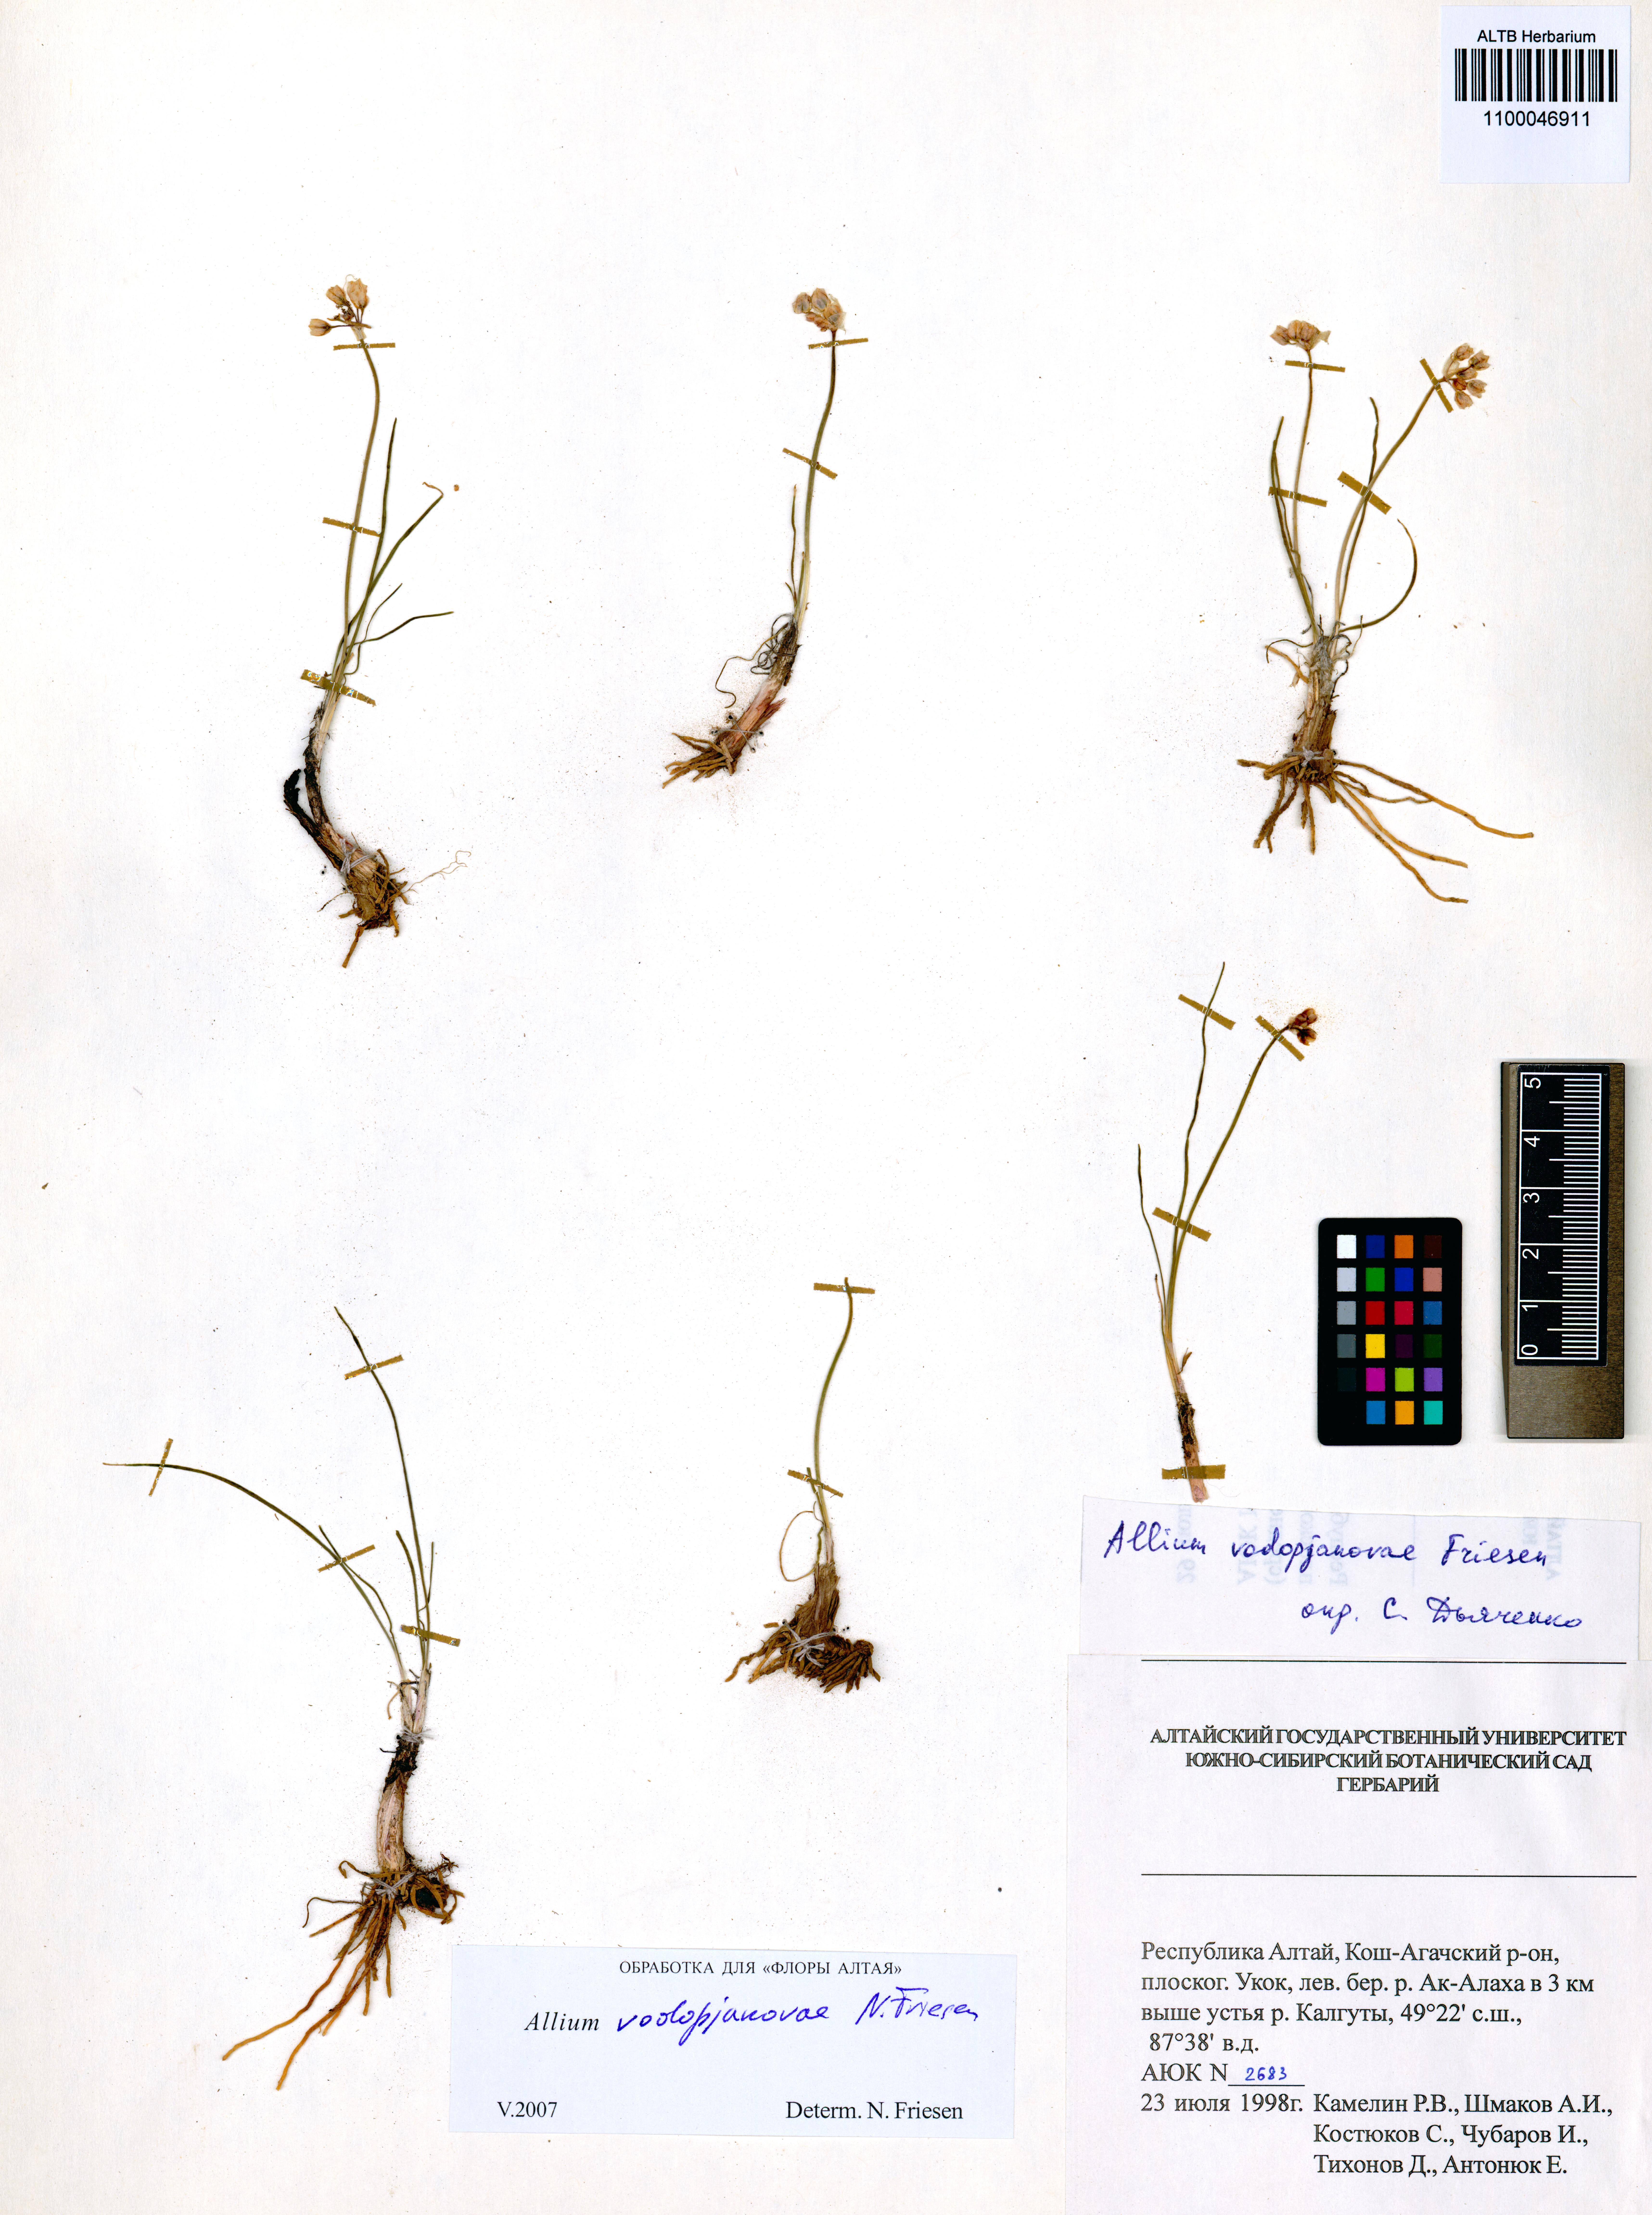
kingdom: Plantae
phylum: Tracheophyta
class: Liliopsida
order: Asparagales
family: Amaryllidaceae
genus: Allium
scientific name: Allium vodopjanovae
